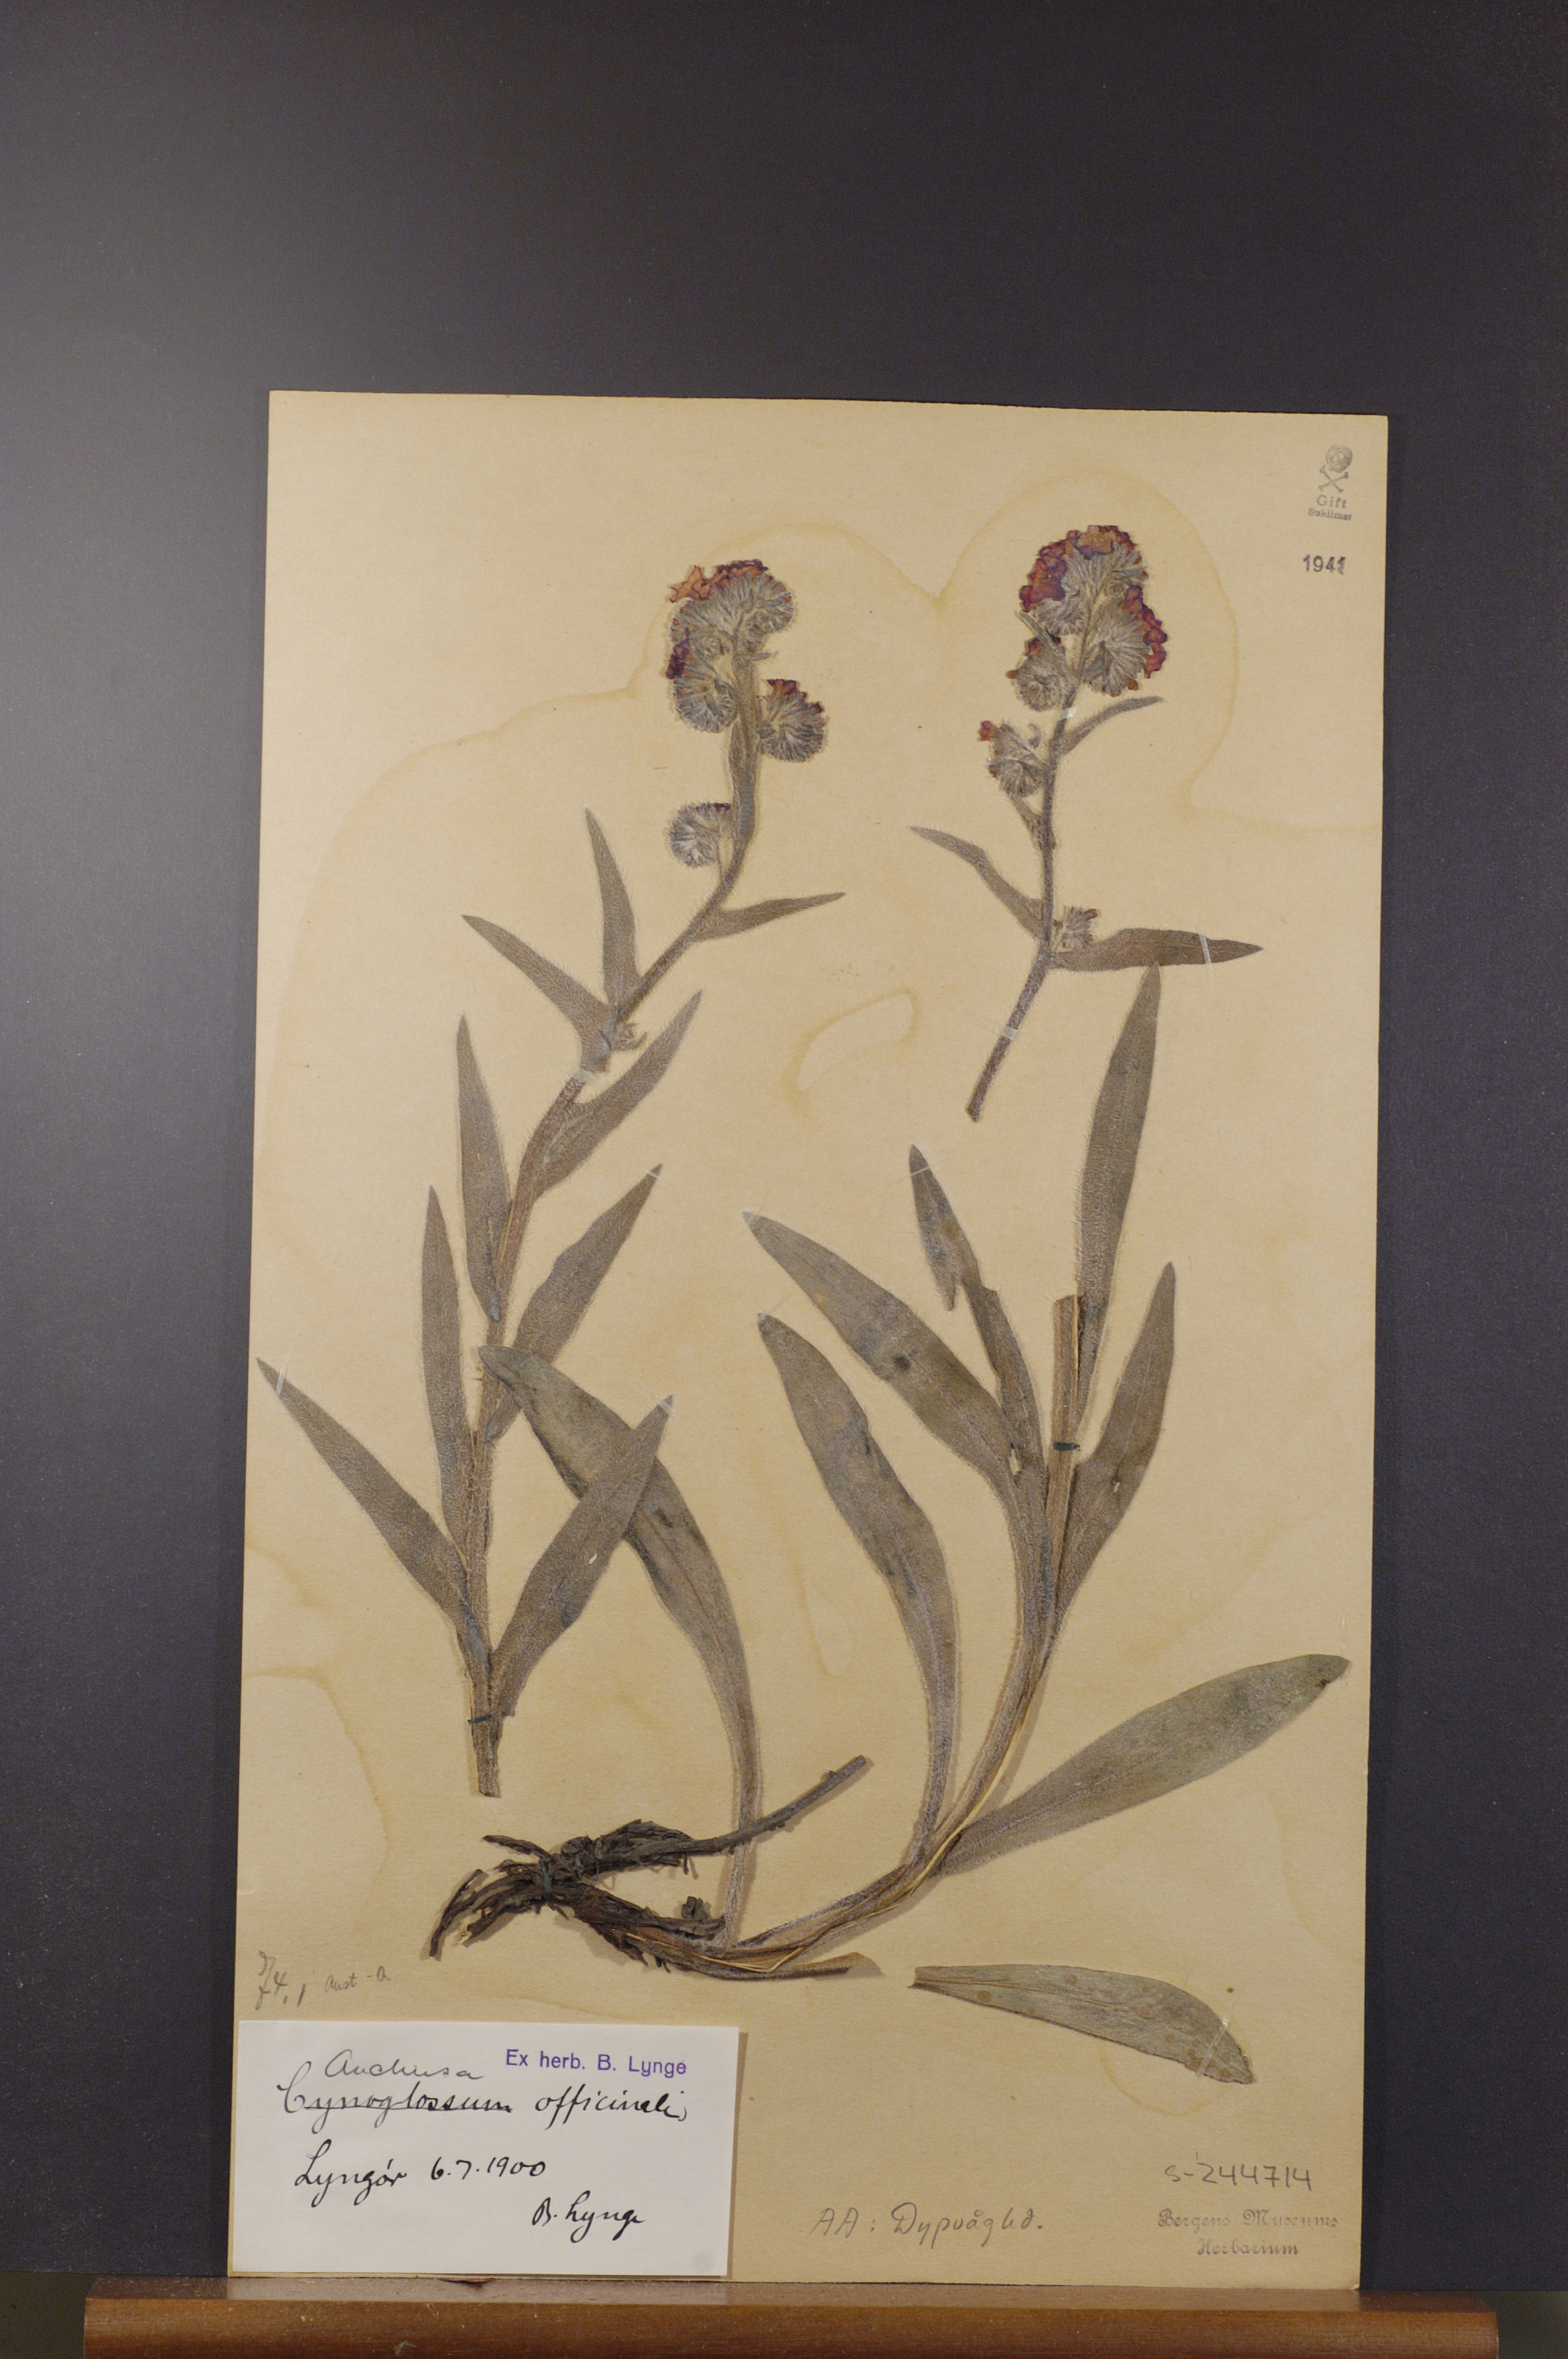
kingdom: Plantae
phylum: Tracheophyta
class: Magnoliopsida
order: Boraginales
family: Boraginaceae
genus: Anchusa
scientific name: Anchusa officinalis
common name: Alkanet
